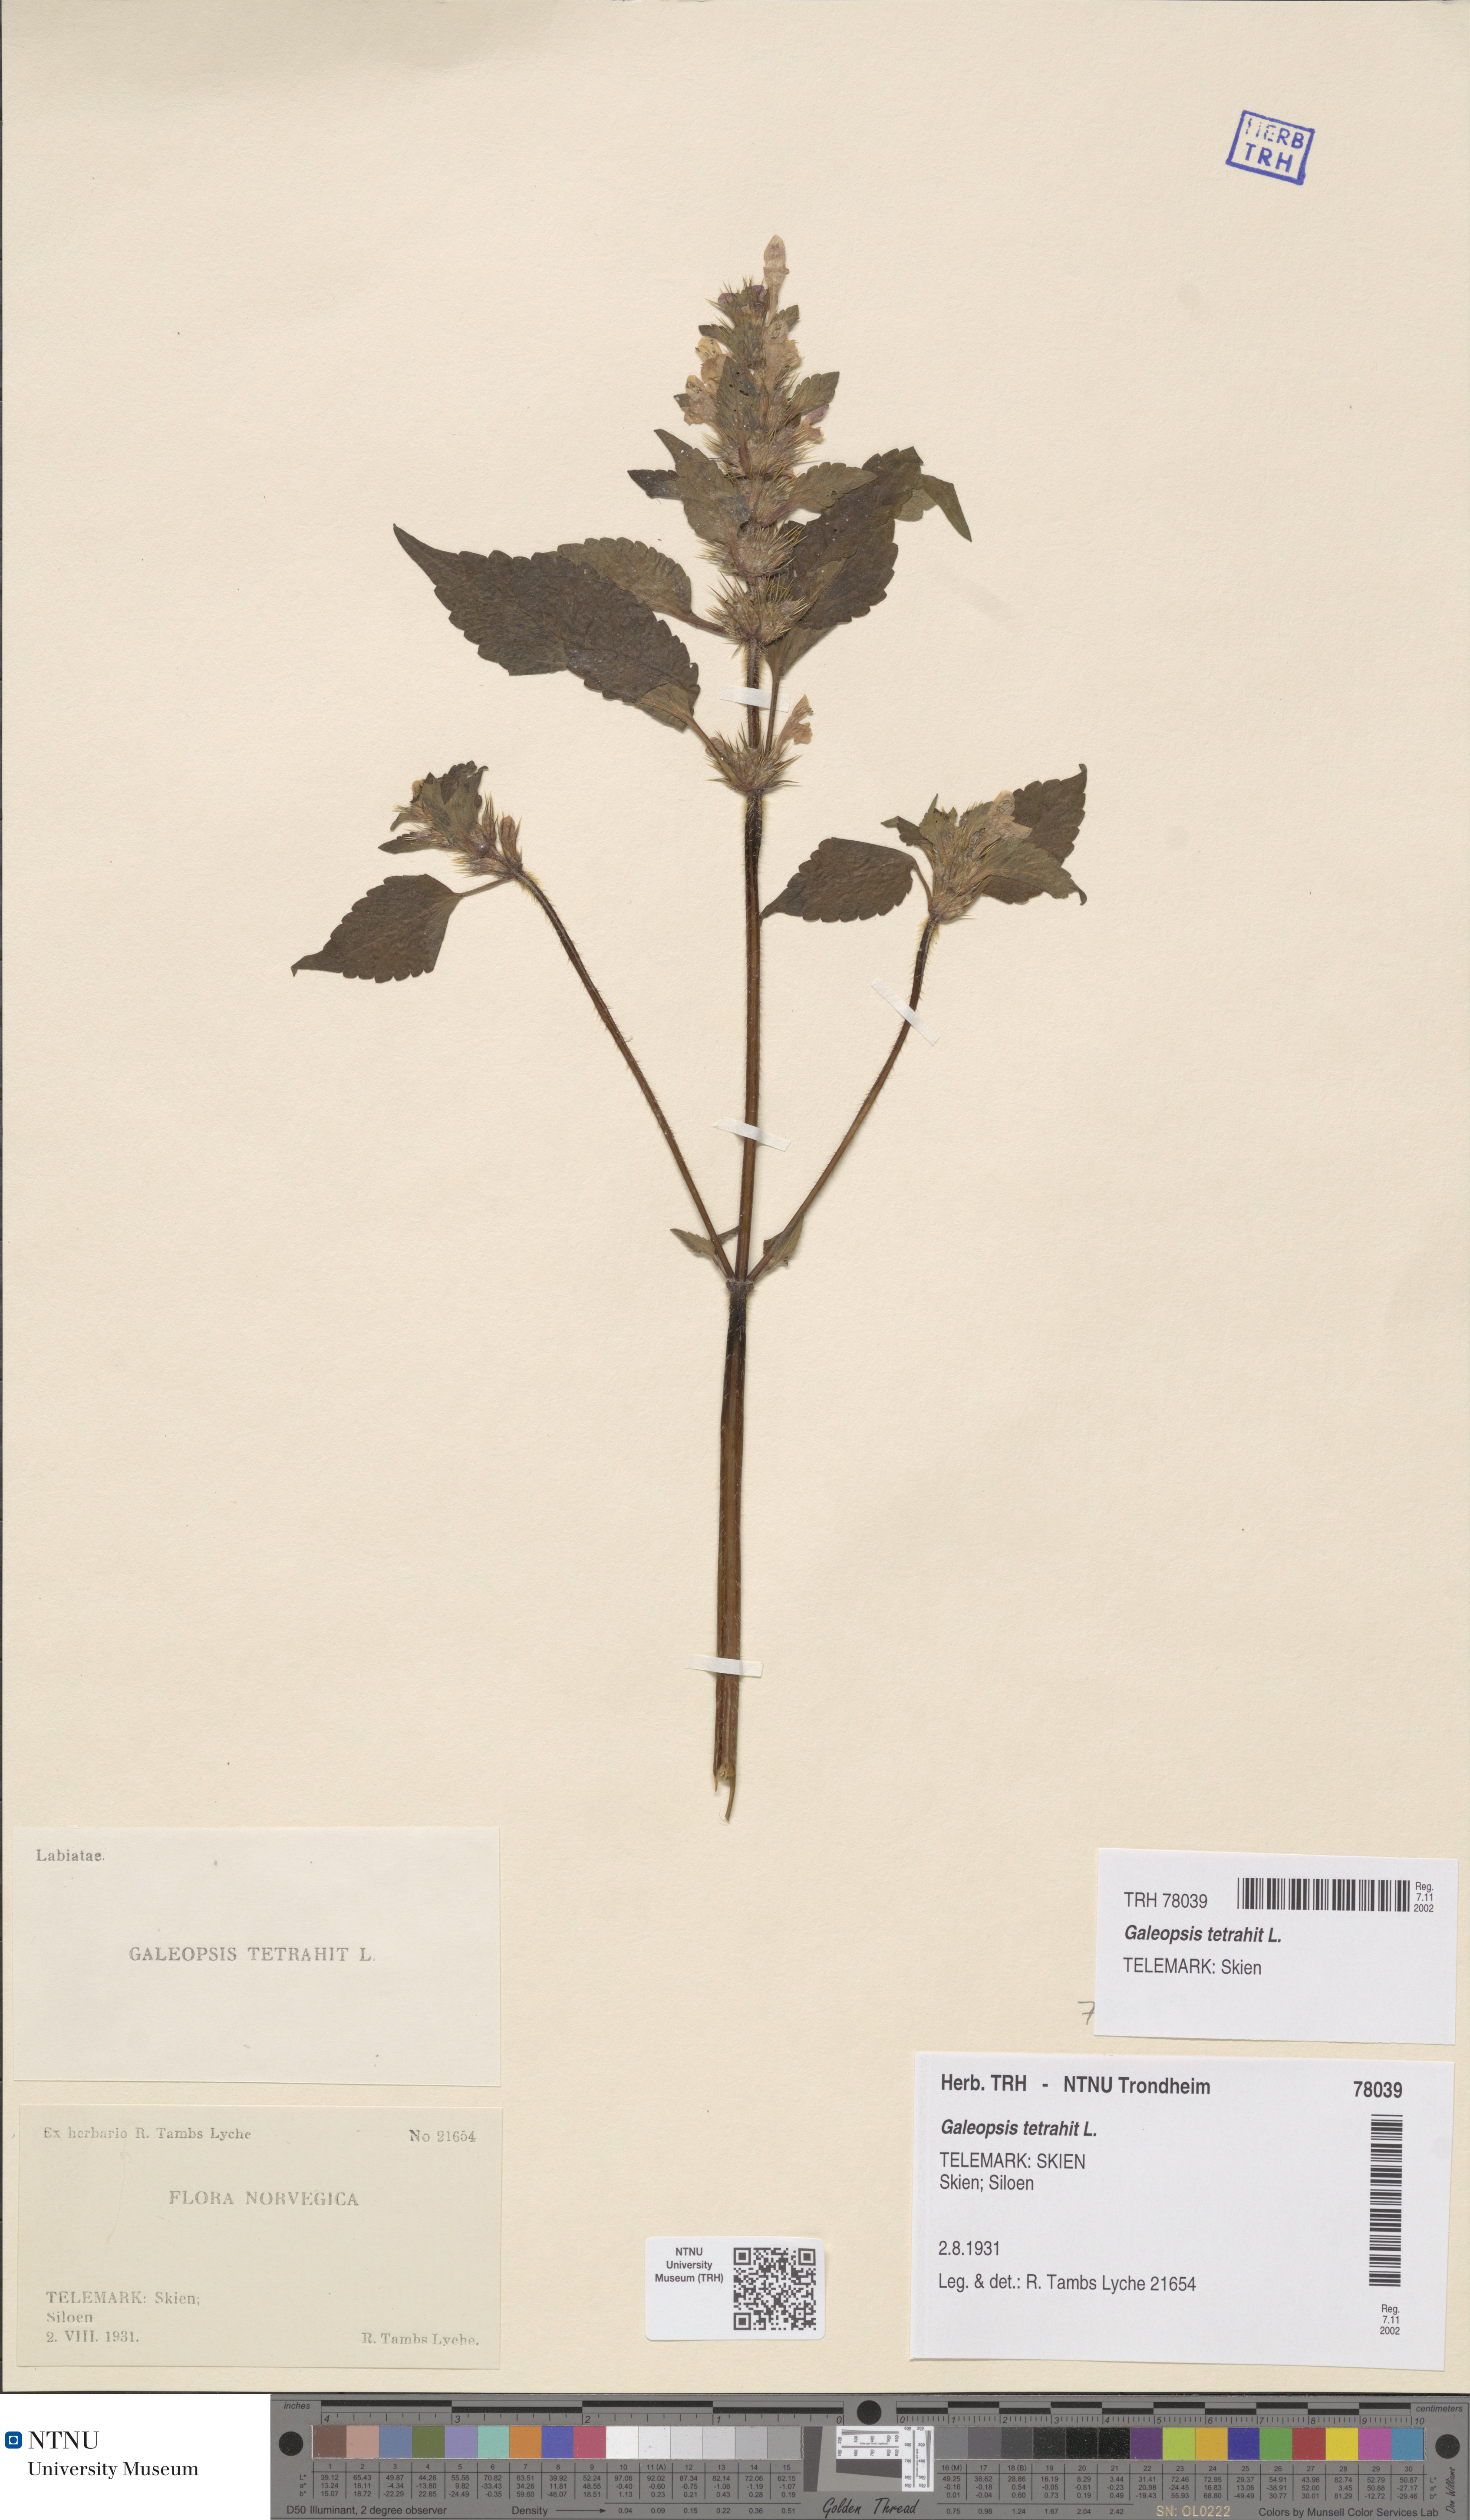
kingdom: Plantae
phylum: Tracheophyta
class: Magnoliopsida
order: Lamiales
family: Lamiaceae
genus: Galeopsis
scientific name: Galeopsis tetrahit
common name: Common hemp-nettle
